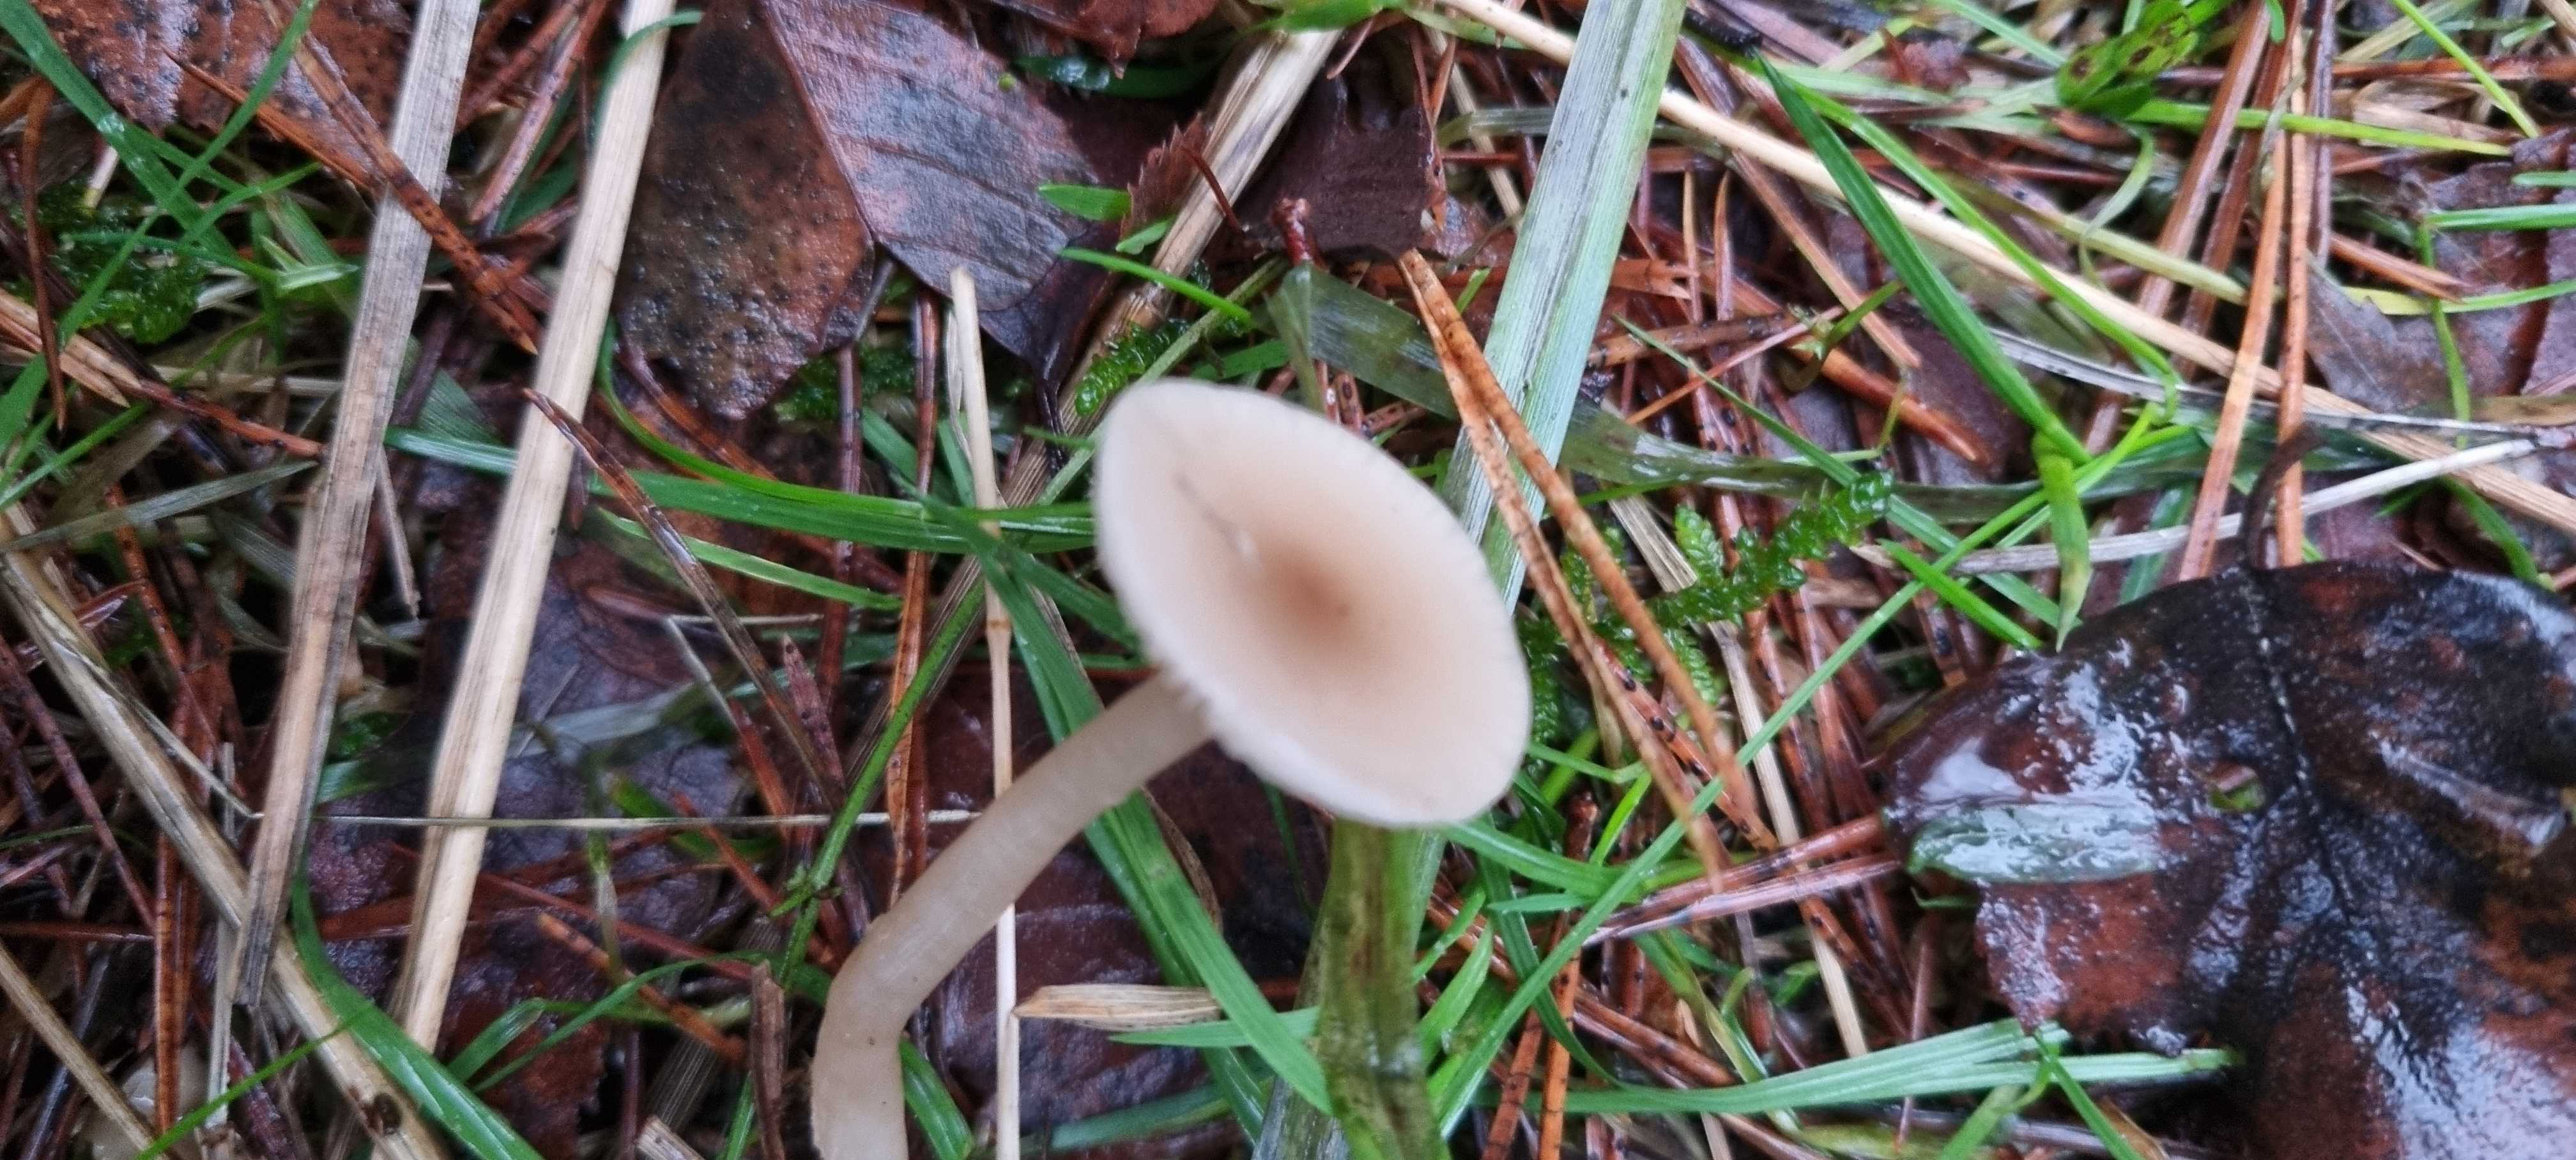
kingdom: Fungi
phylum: Basidiomycota
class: Agaricomycetes
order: Agaricales
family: Tricholomataceae
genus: Clitocybe
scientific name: Clitocybe fragrans
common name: vellugtende tragthat
